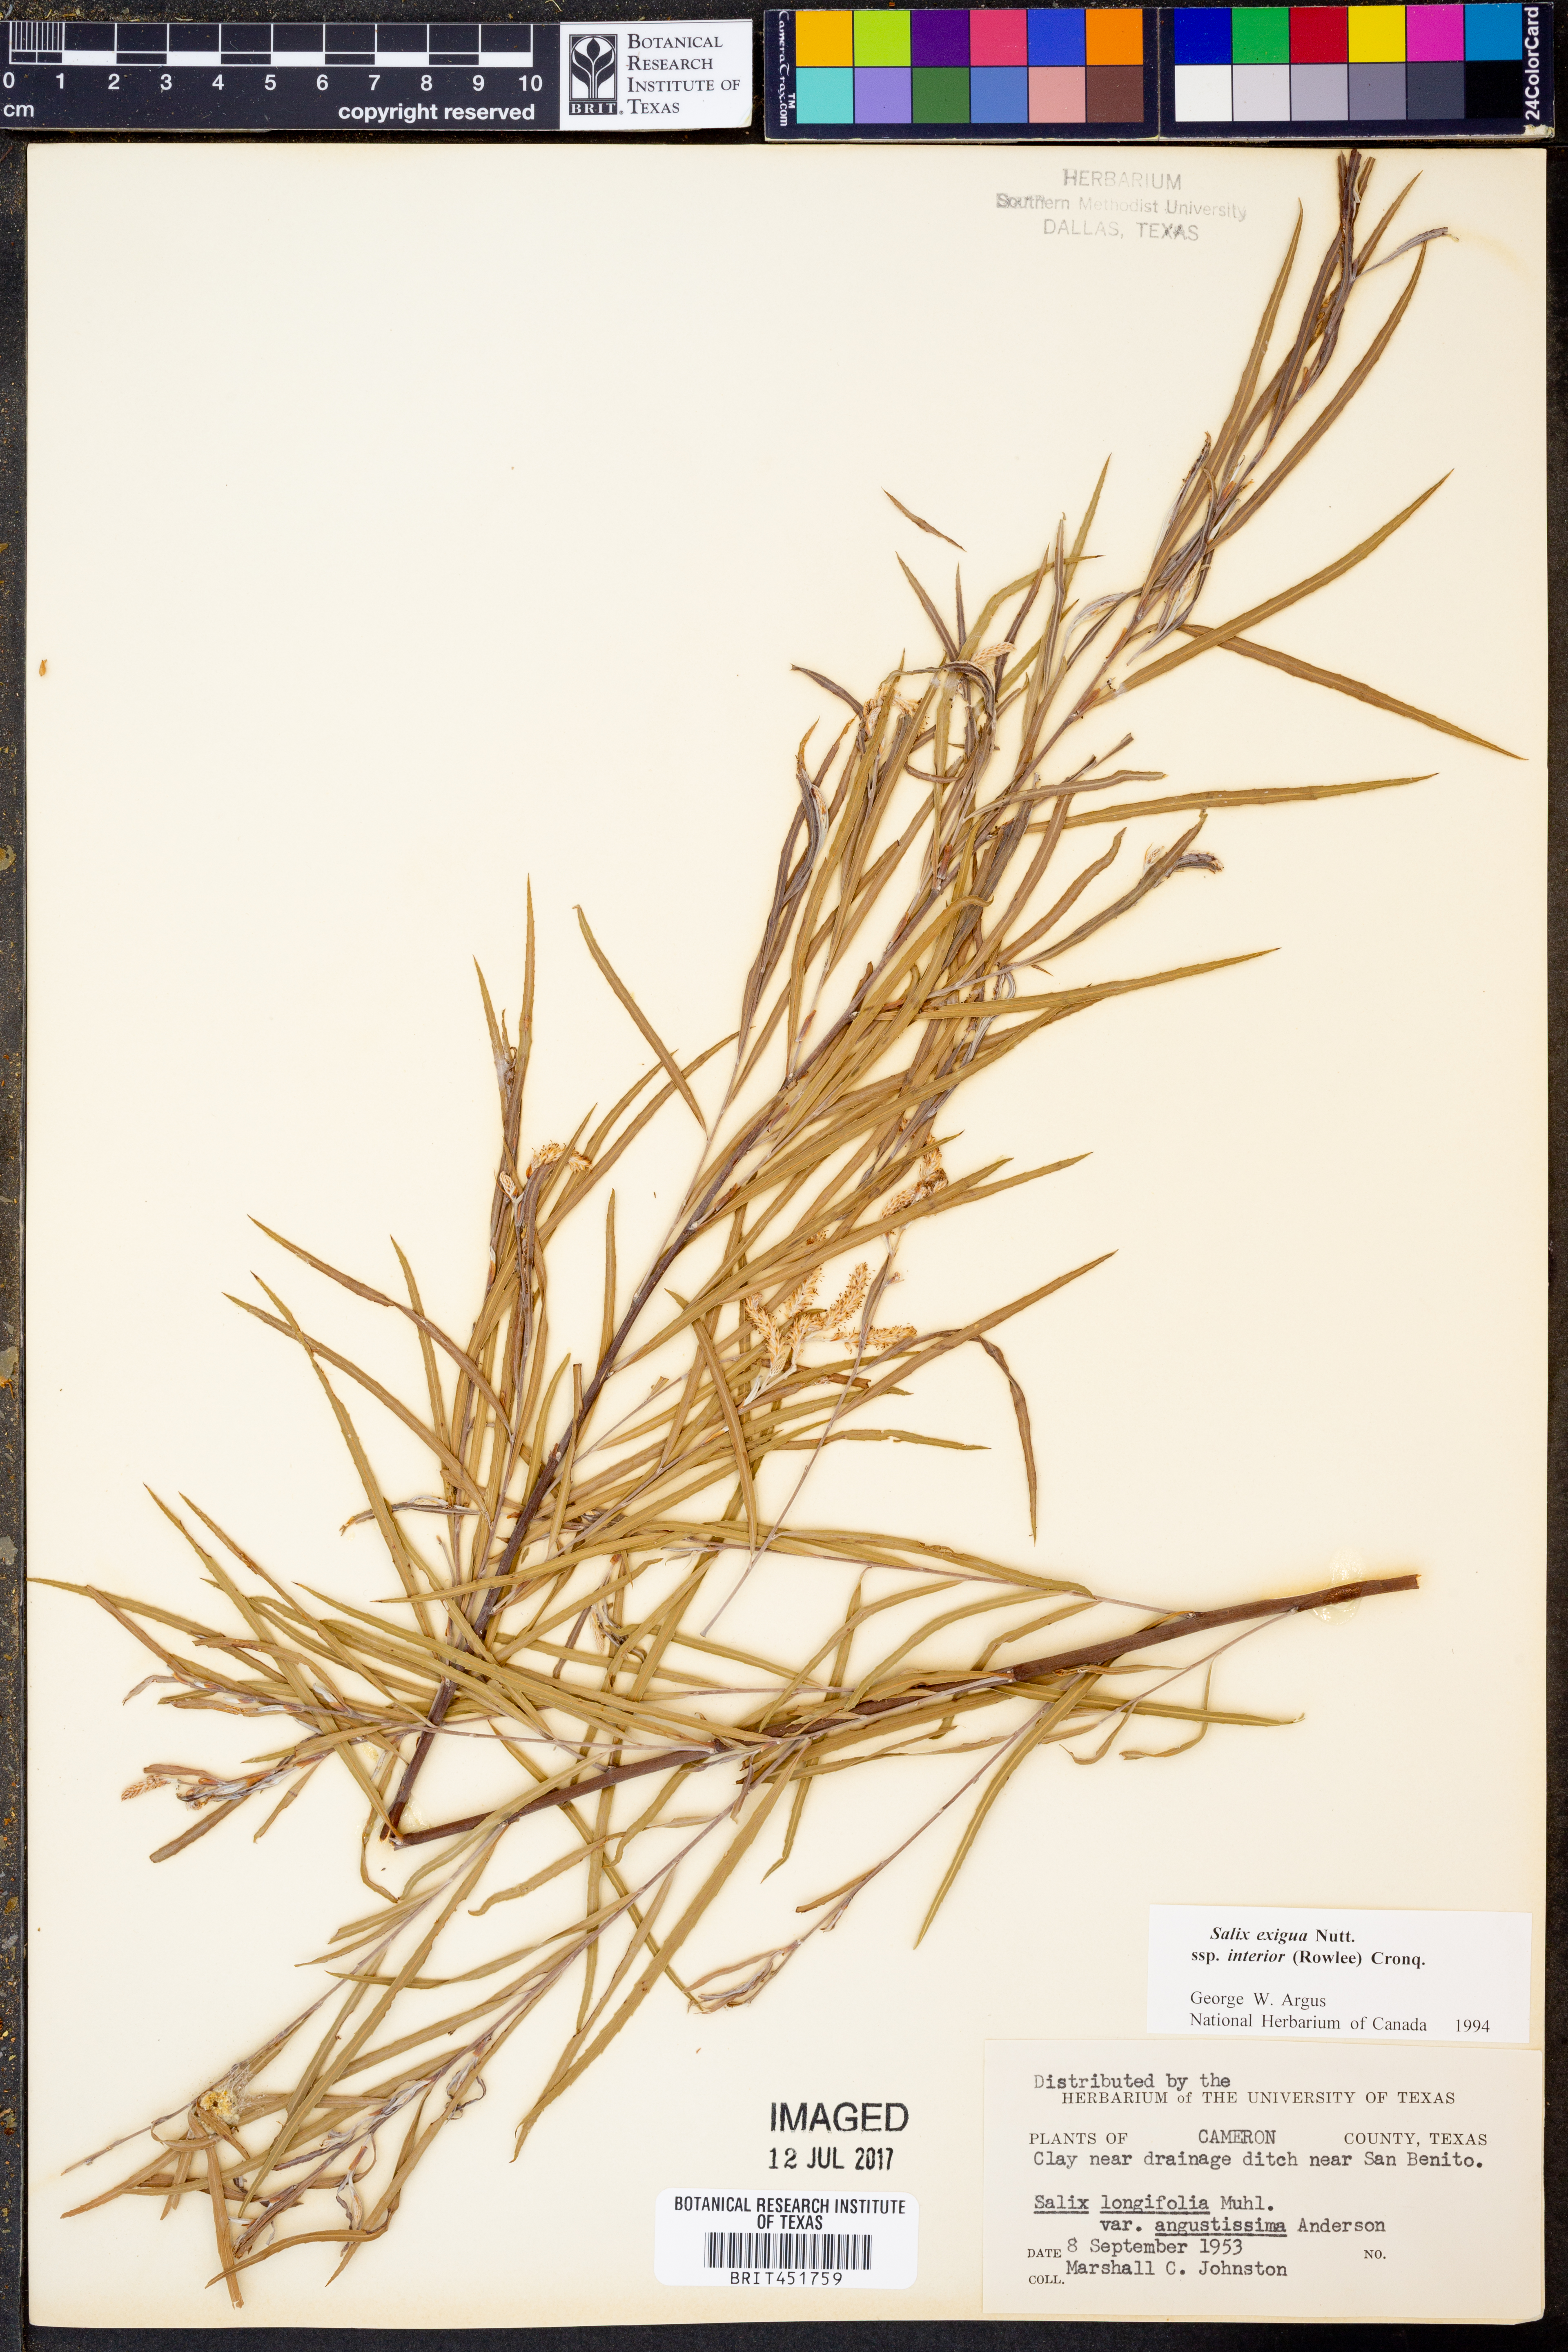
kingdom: Plantae
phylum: Tracheophyta
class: Magnoliopsida
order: Malpighiales
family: Salicaceae
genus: Salix
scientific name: Salix interior
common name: Sandbar willow
